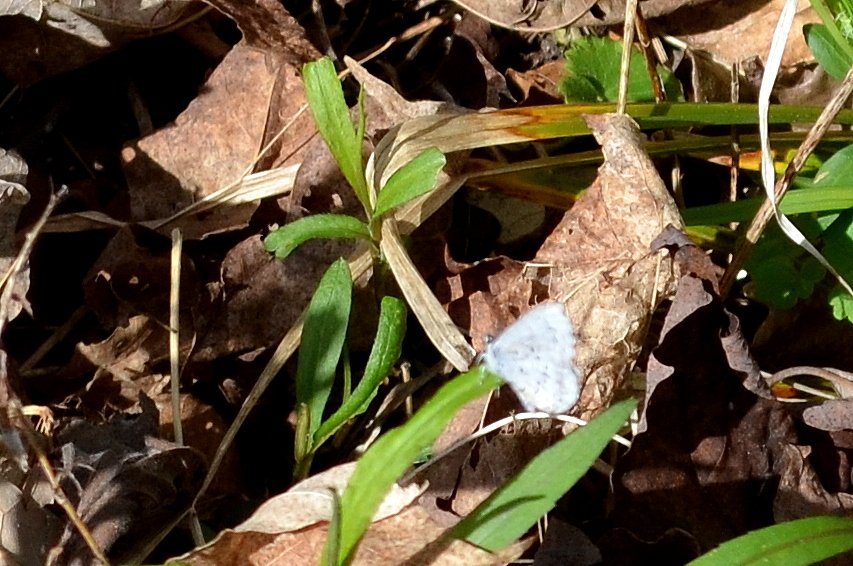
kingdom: Animalia
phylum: Arthropoda
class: Insecta
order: Lepidoptera
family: Lycaenidae
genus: Celastrina
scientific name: Celastrina lucia
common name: Northern Spring Azure
